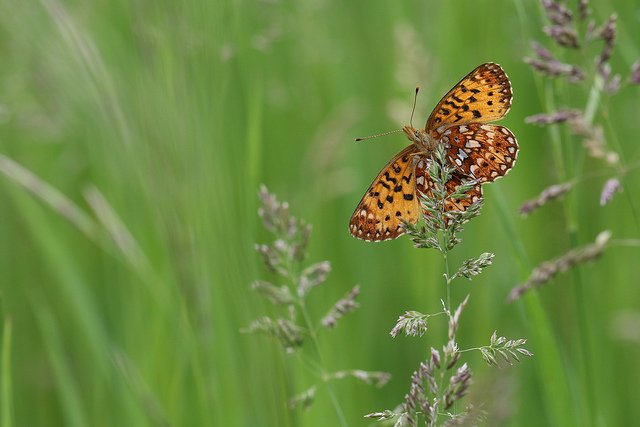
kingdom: Animalia
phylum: Arthropoda
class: Insecta
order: Lepidoptera
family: Nymphalidae
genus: Boloria
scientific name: Boloria selene
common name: Silver-bordered Fritillary
